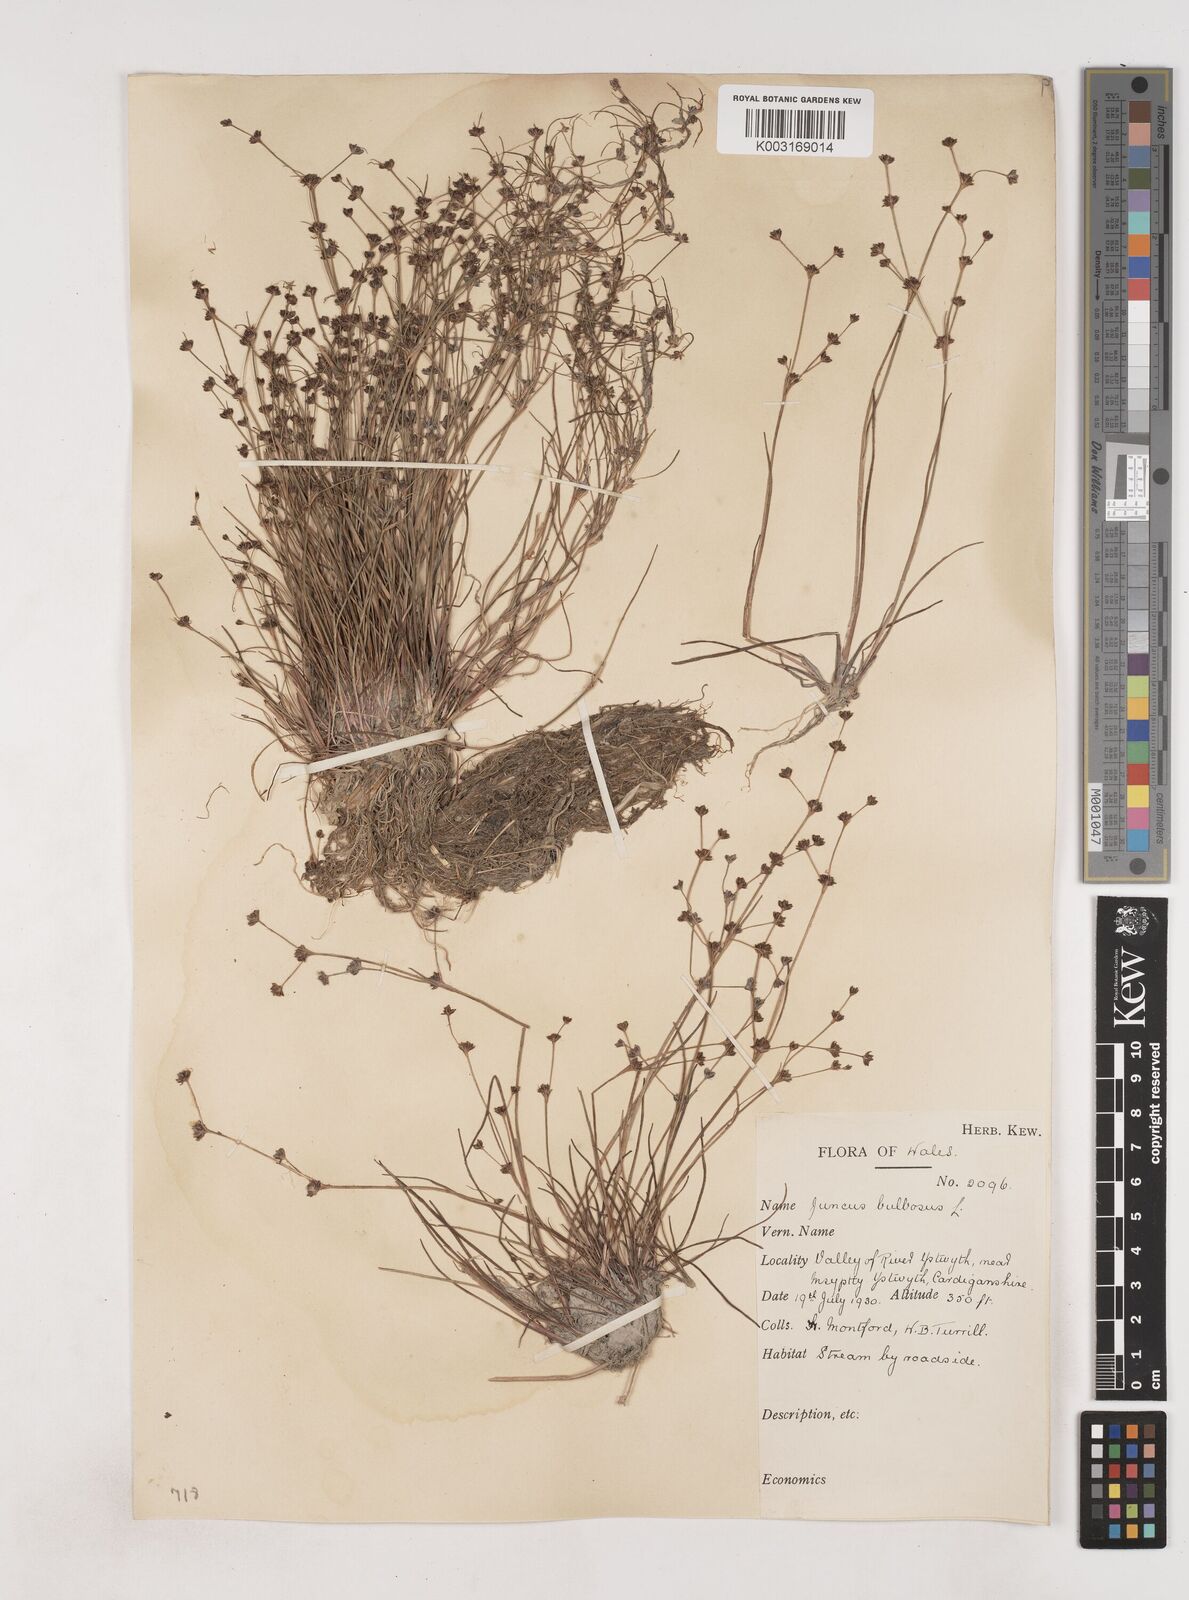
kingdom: Plantae
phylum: Tracheophyta
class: Liliopsida
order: Poales
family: Juncaceae
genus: Juncus
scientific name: Juncus bulbosus
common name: Bulbous rush
